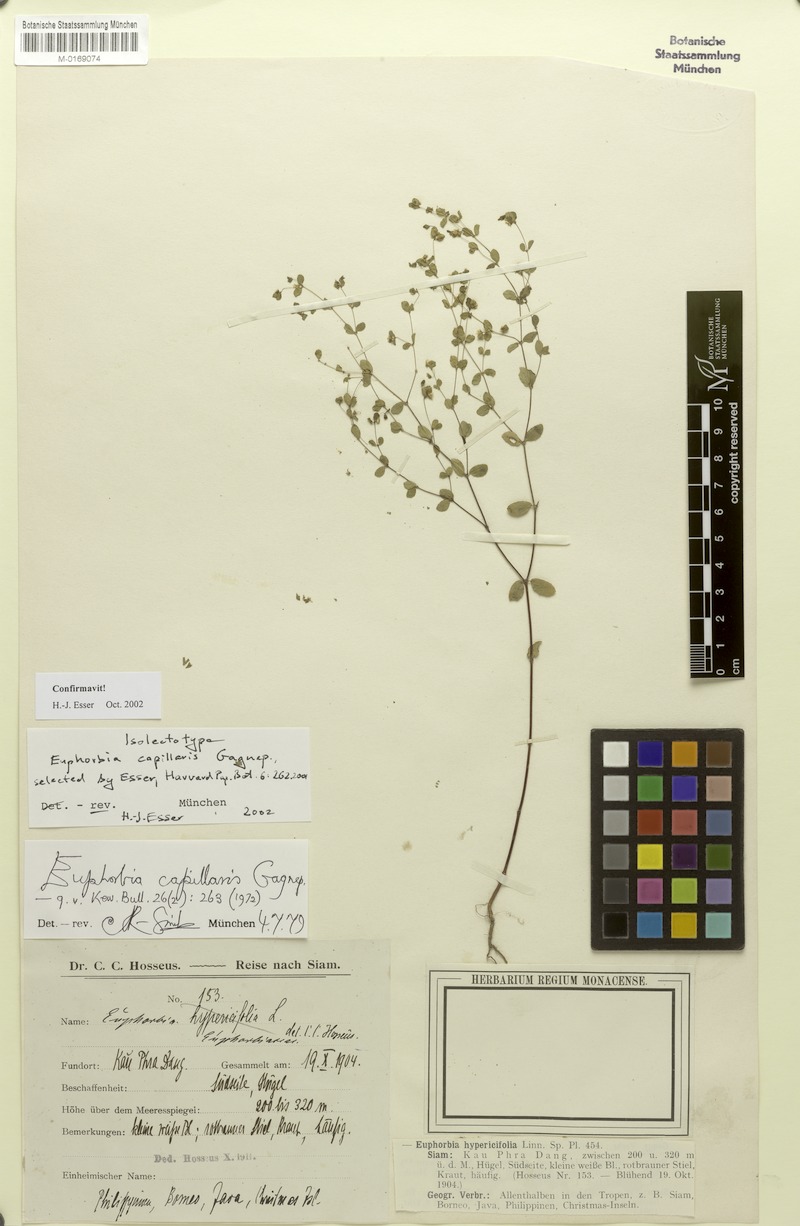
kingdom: Plantae
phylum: Tracheophyta
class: Magnoliopsida
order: Malpighiales
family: Euphorbiaceae
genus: Euphorbia
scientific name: Euphorbia capillaris
